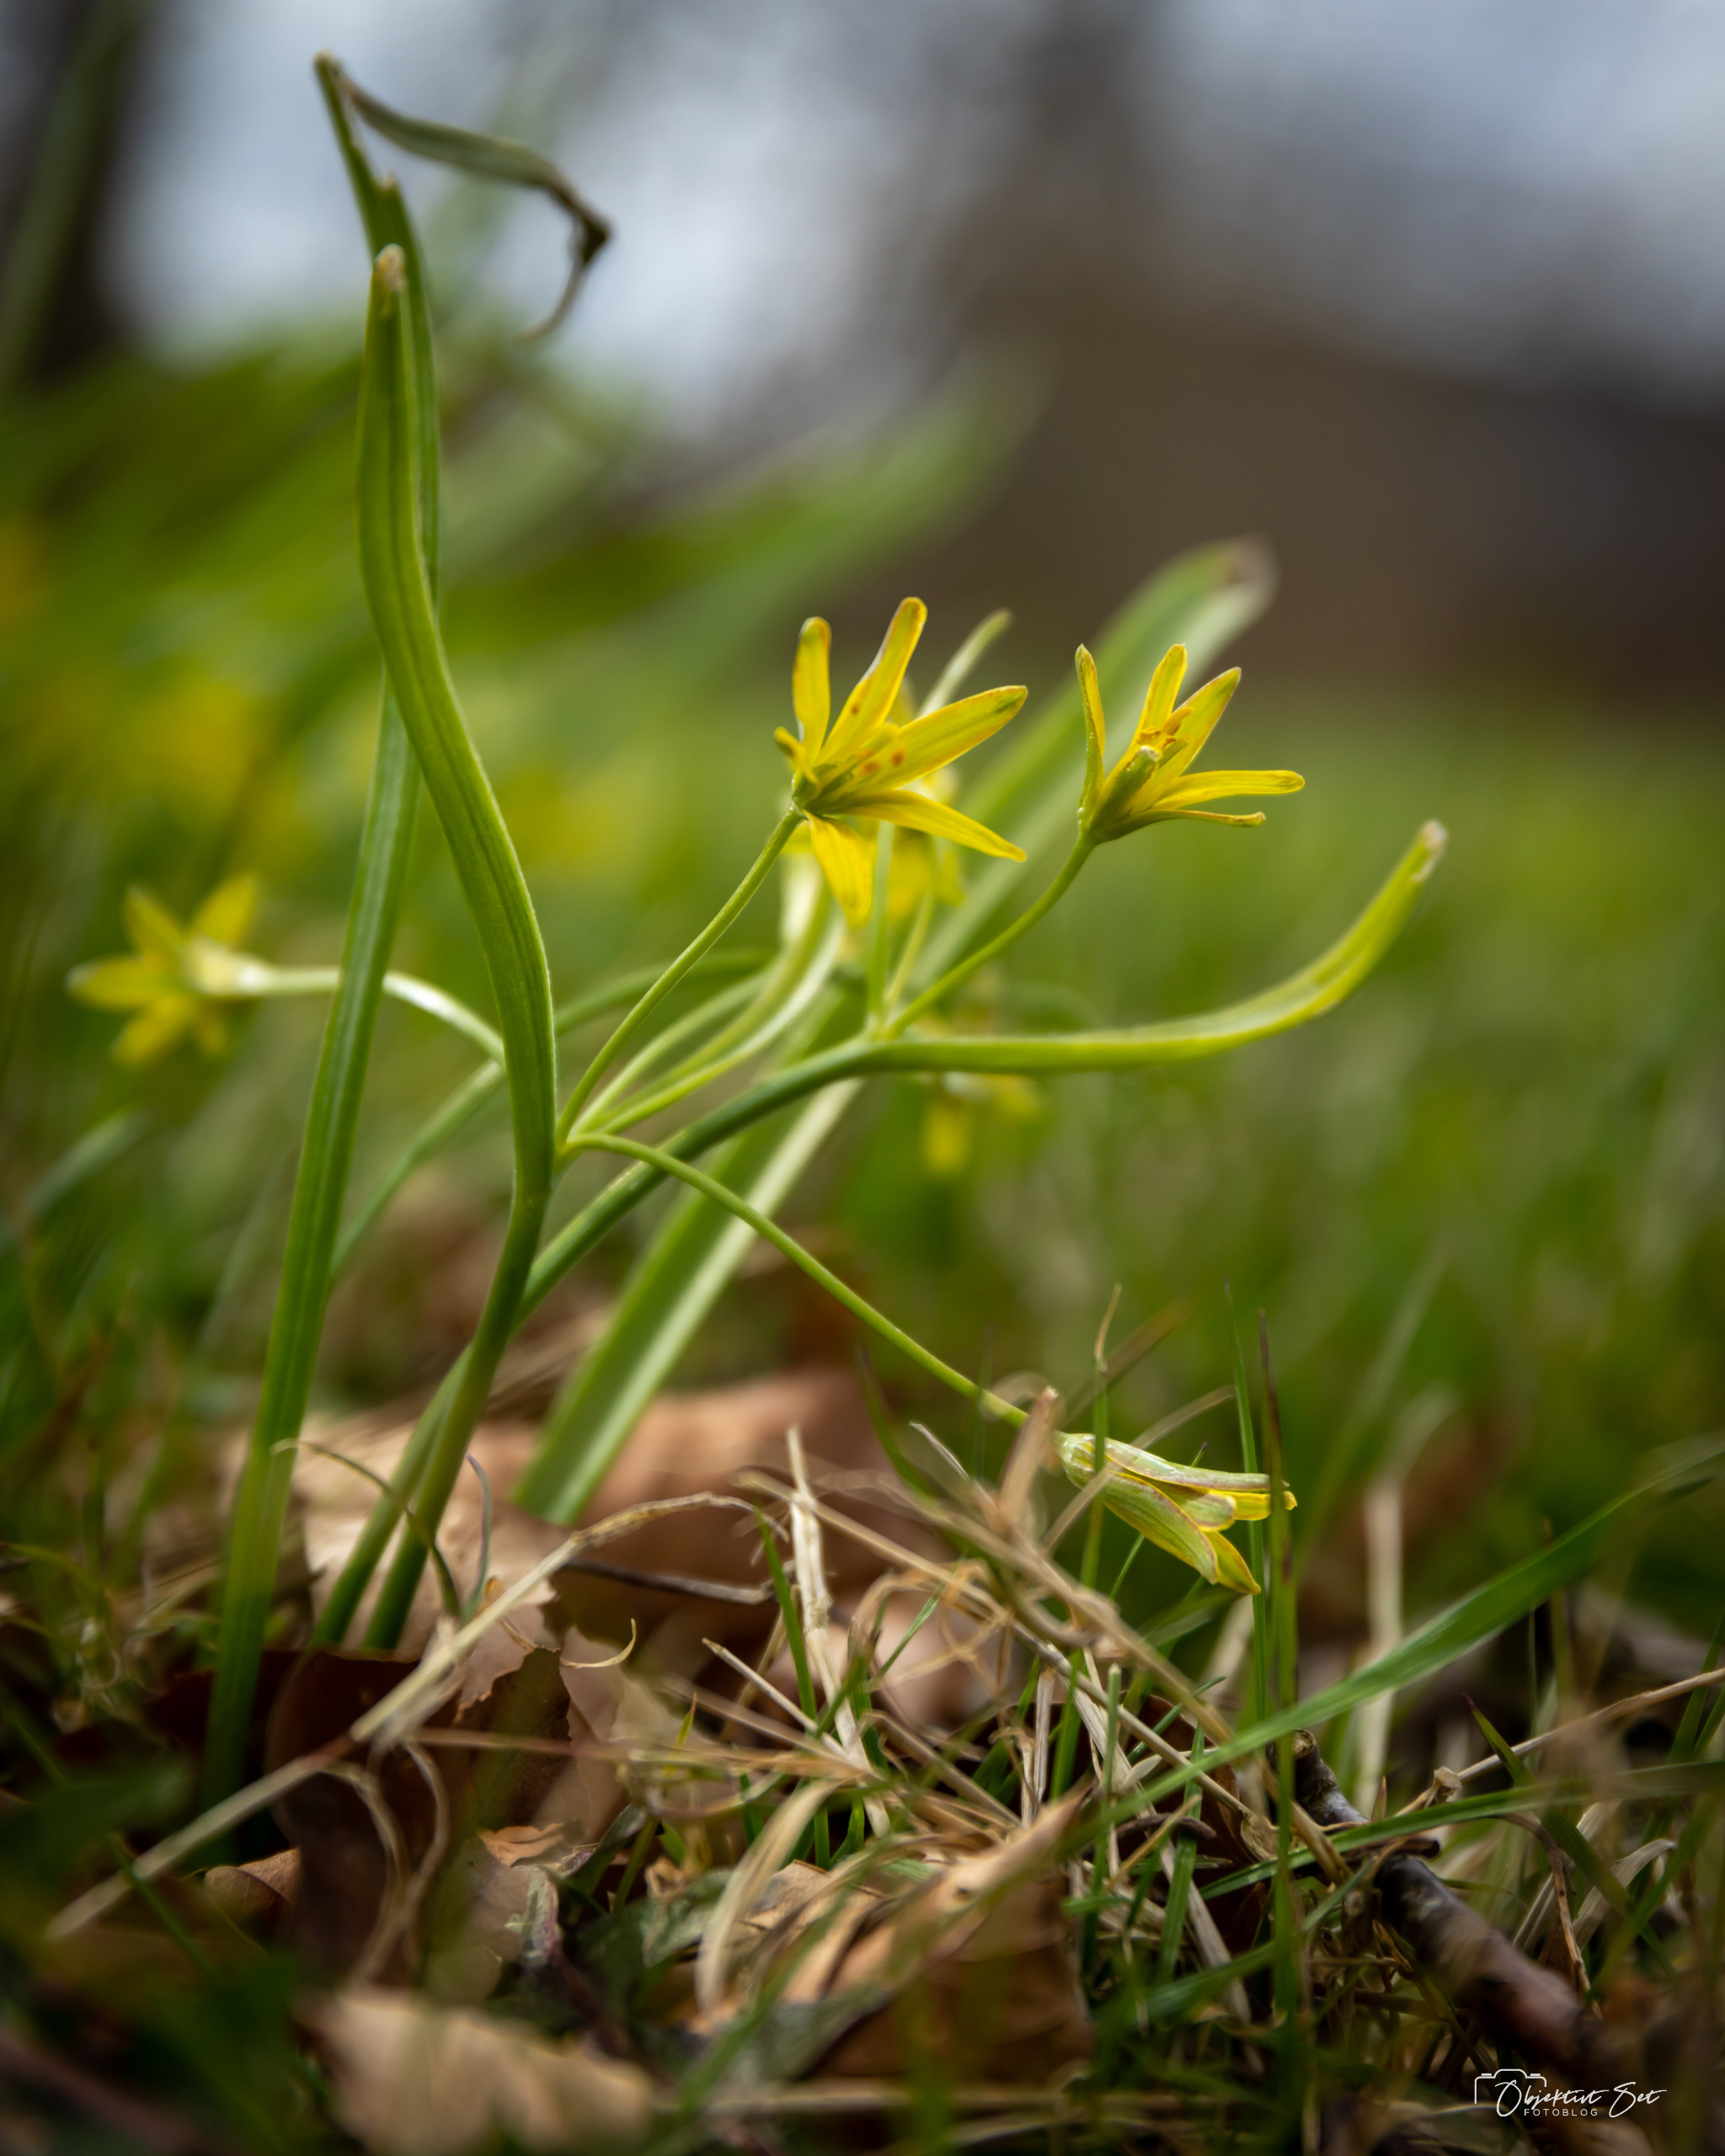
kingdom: Plantae
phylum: Tracheophyta
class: Liliopsida
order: Liliales
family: Liliaceae
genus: Gagea
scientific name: Gagea lutea
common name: Almindelig guldstjerne
